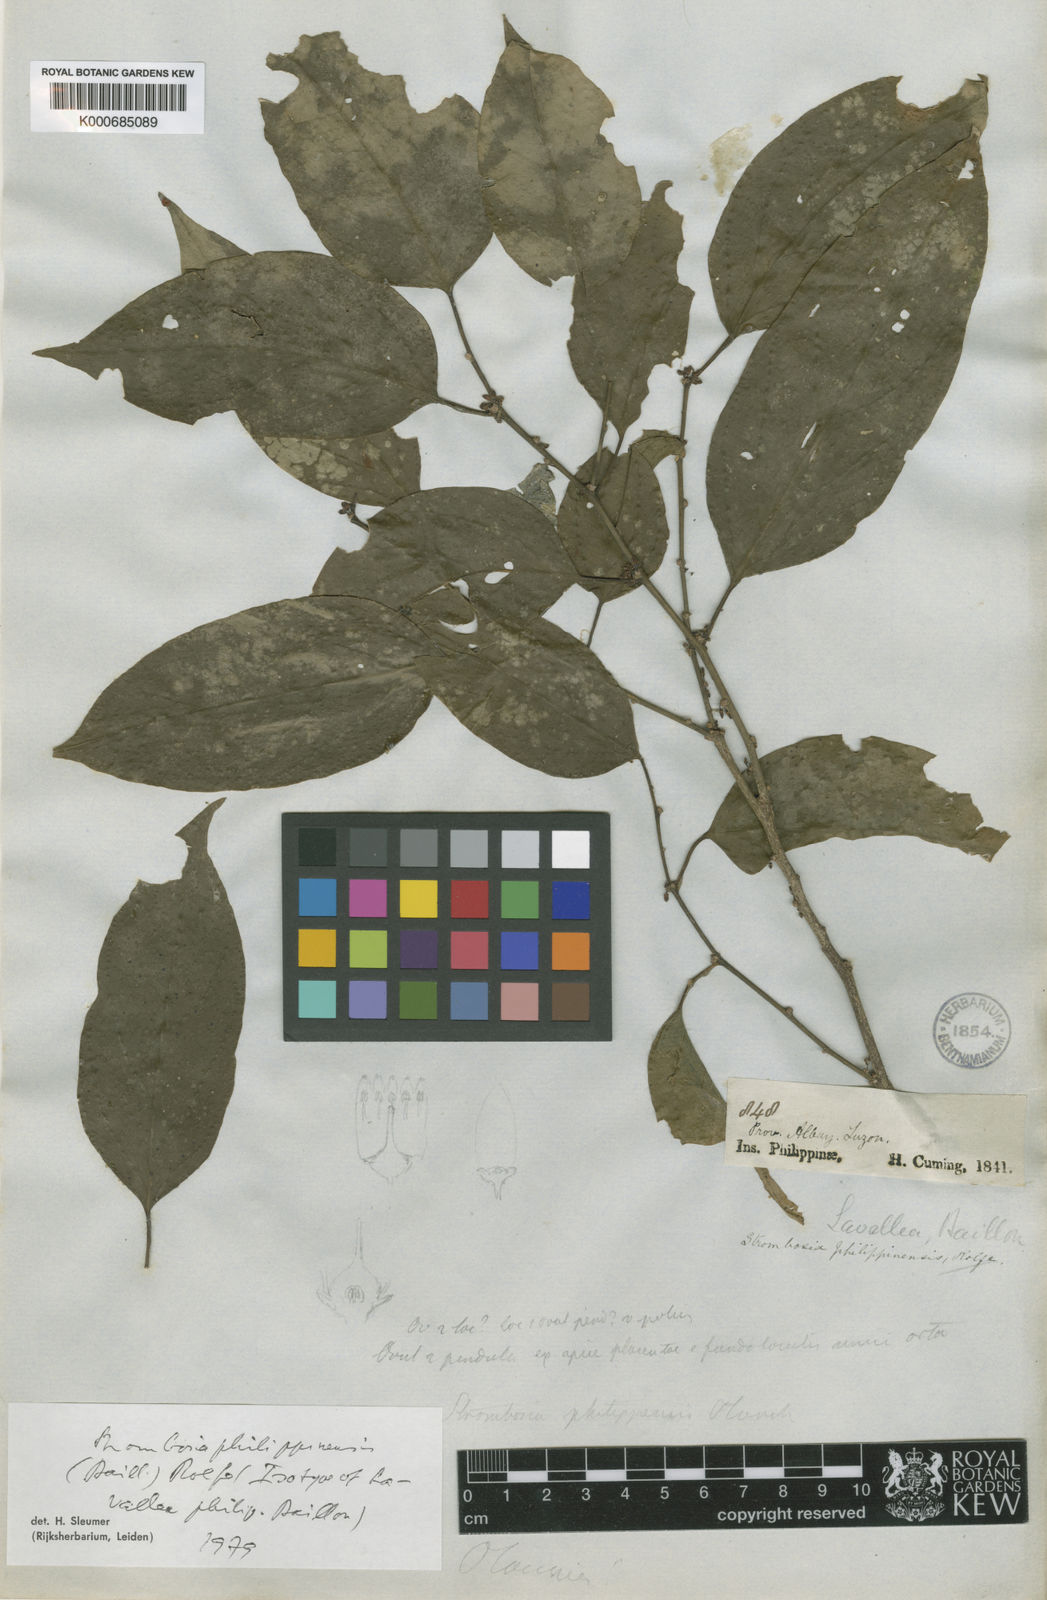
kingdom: Plantae
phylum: Tracheophyta
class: Magnoliopsida
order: Santalales
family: Strombosiaceae
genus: Strombosia
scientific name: Strombosia
